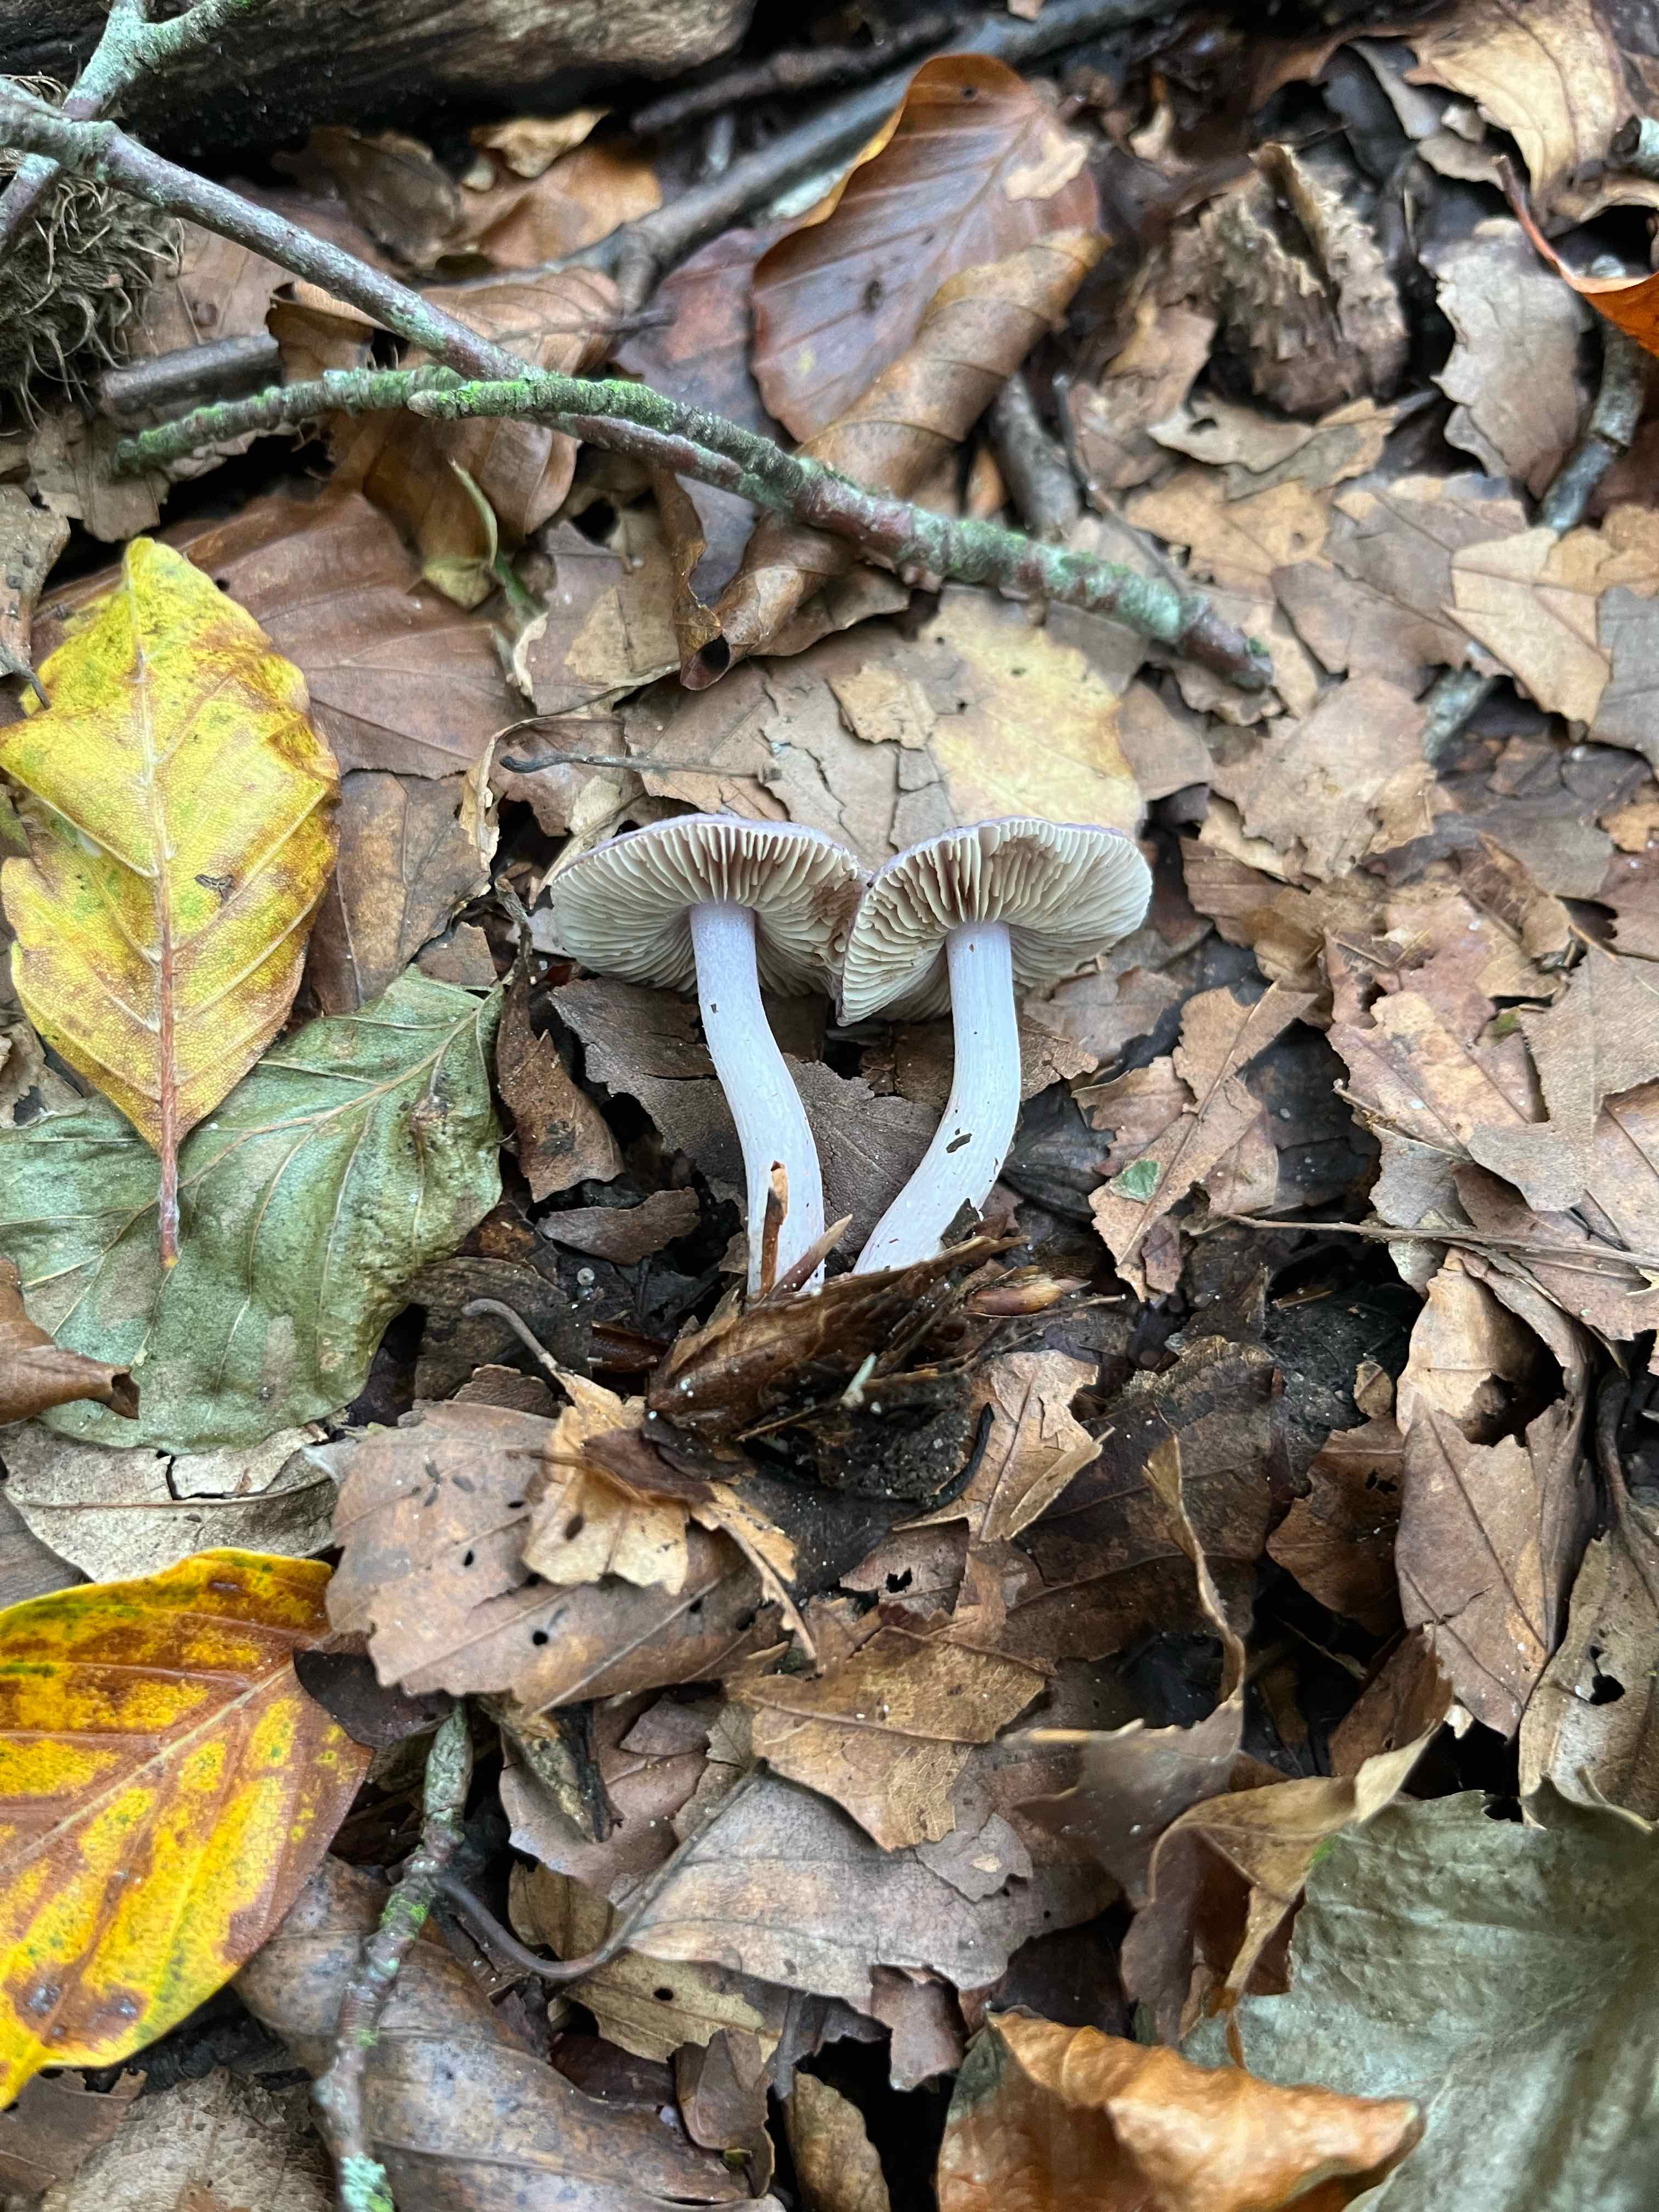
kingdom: Fungi
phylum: Basidiomycota
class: Agaricomycetes
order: Agaricales
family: Inocybaceae
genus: Inocybe
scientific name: Inocybe geophylla
